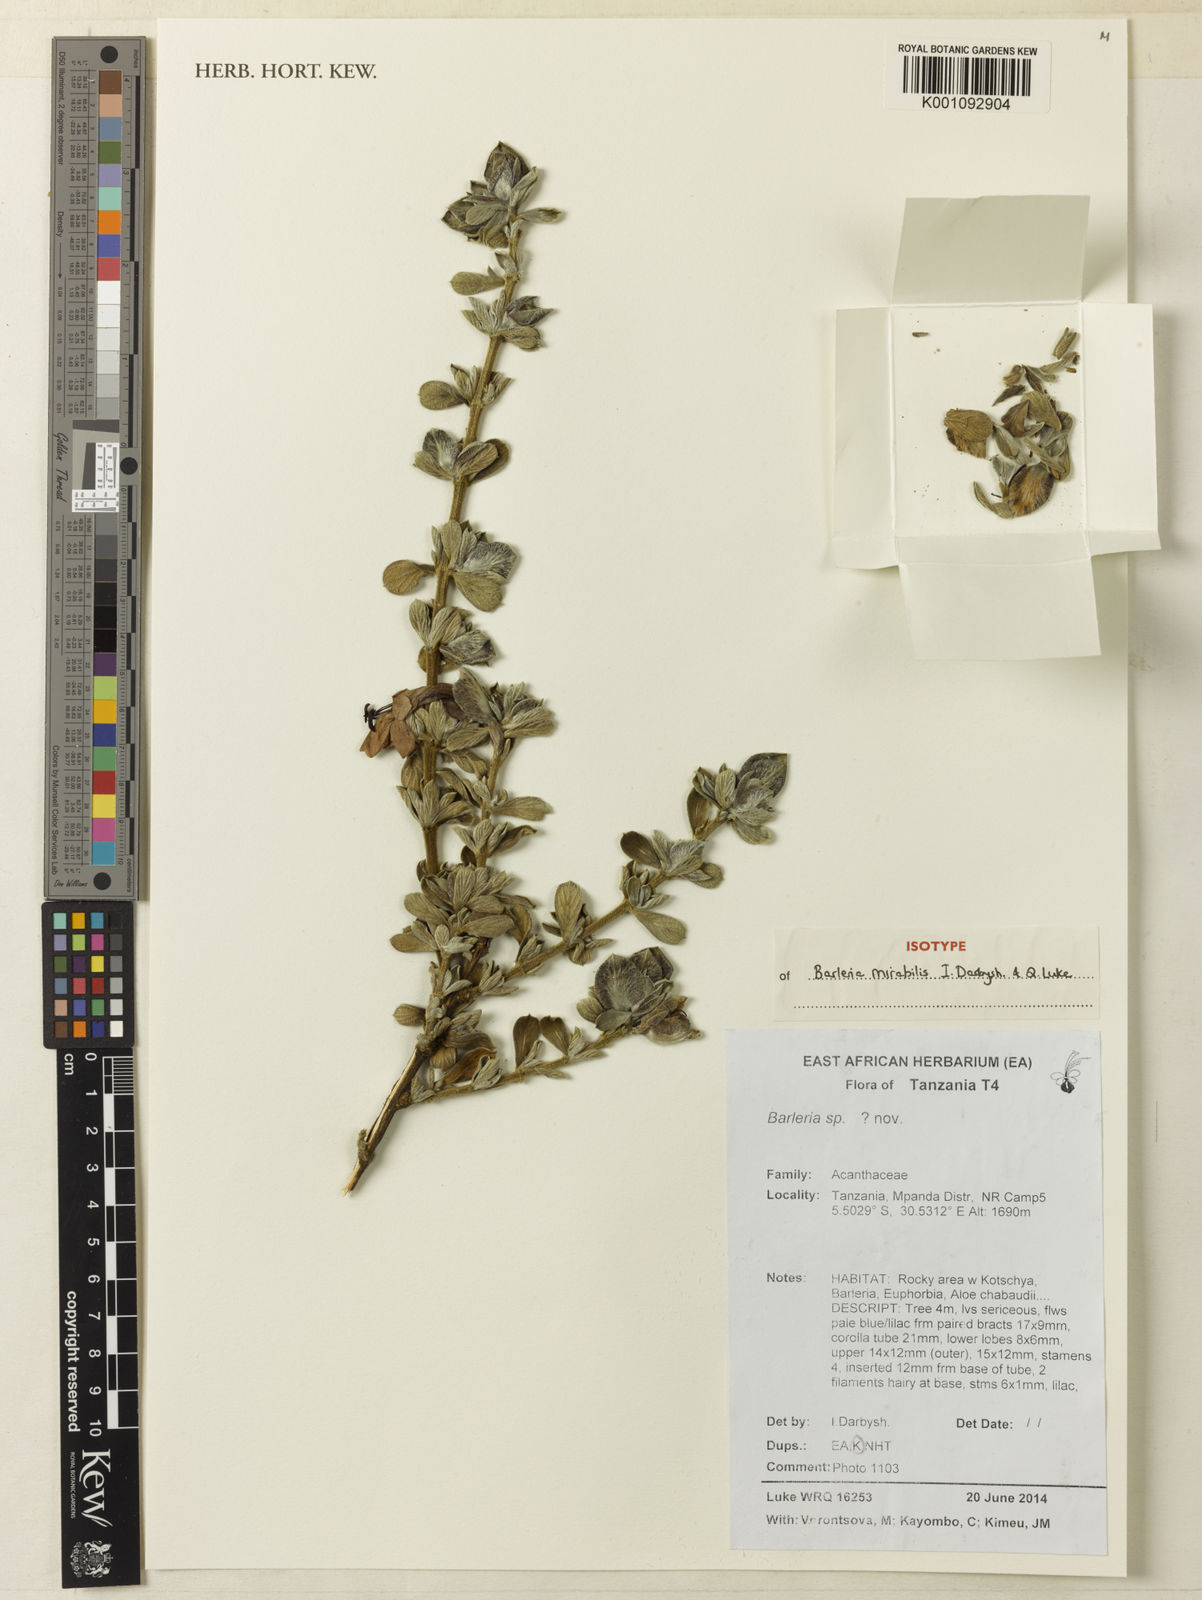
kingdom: Plantae
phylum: Tracheophyta
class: Magnoliopsida
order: Lamiales
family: Acanthaceae
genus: Barleria
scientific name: Barleria mirabilis
